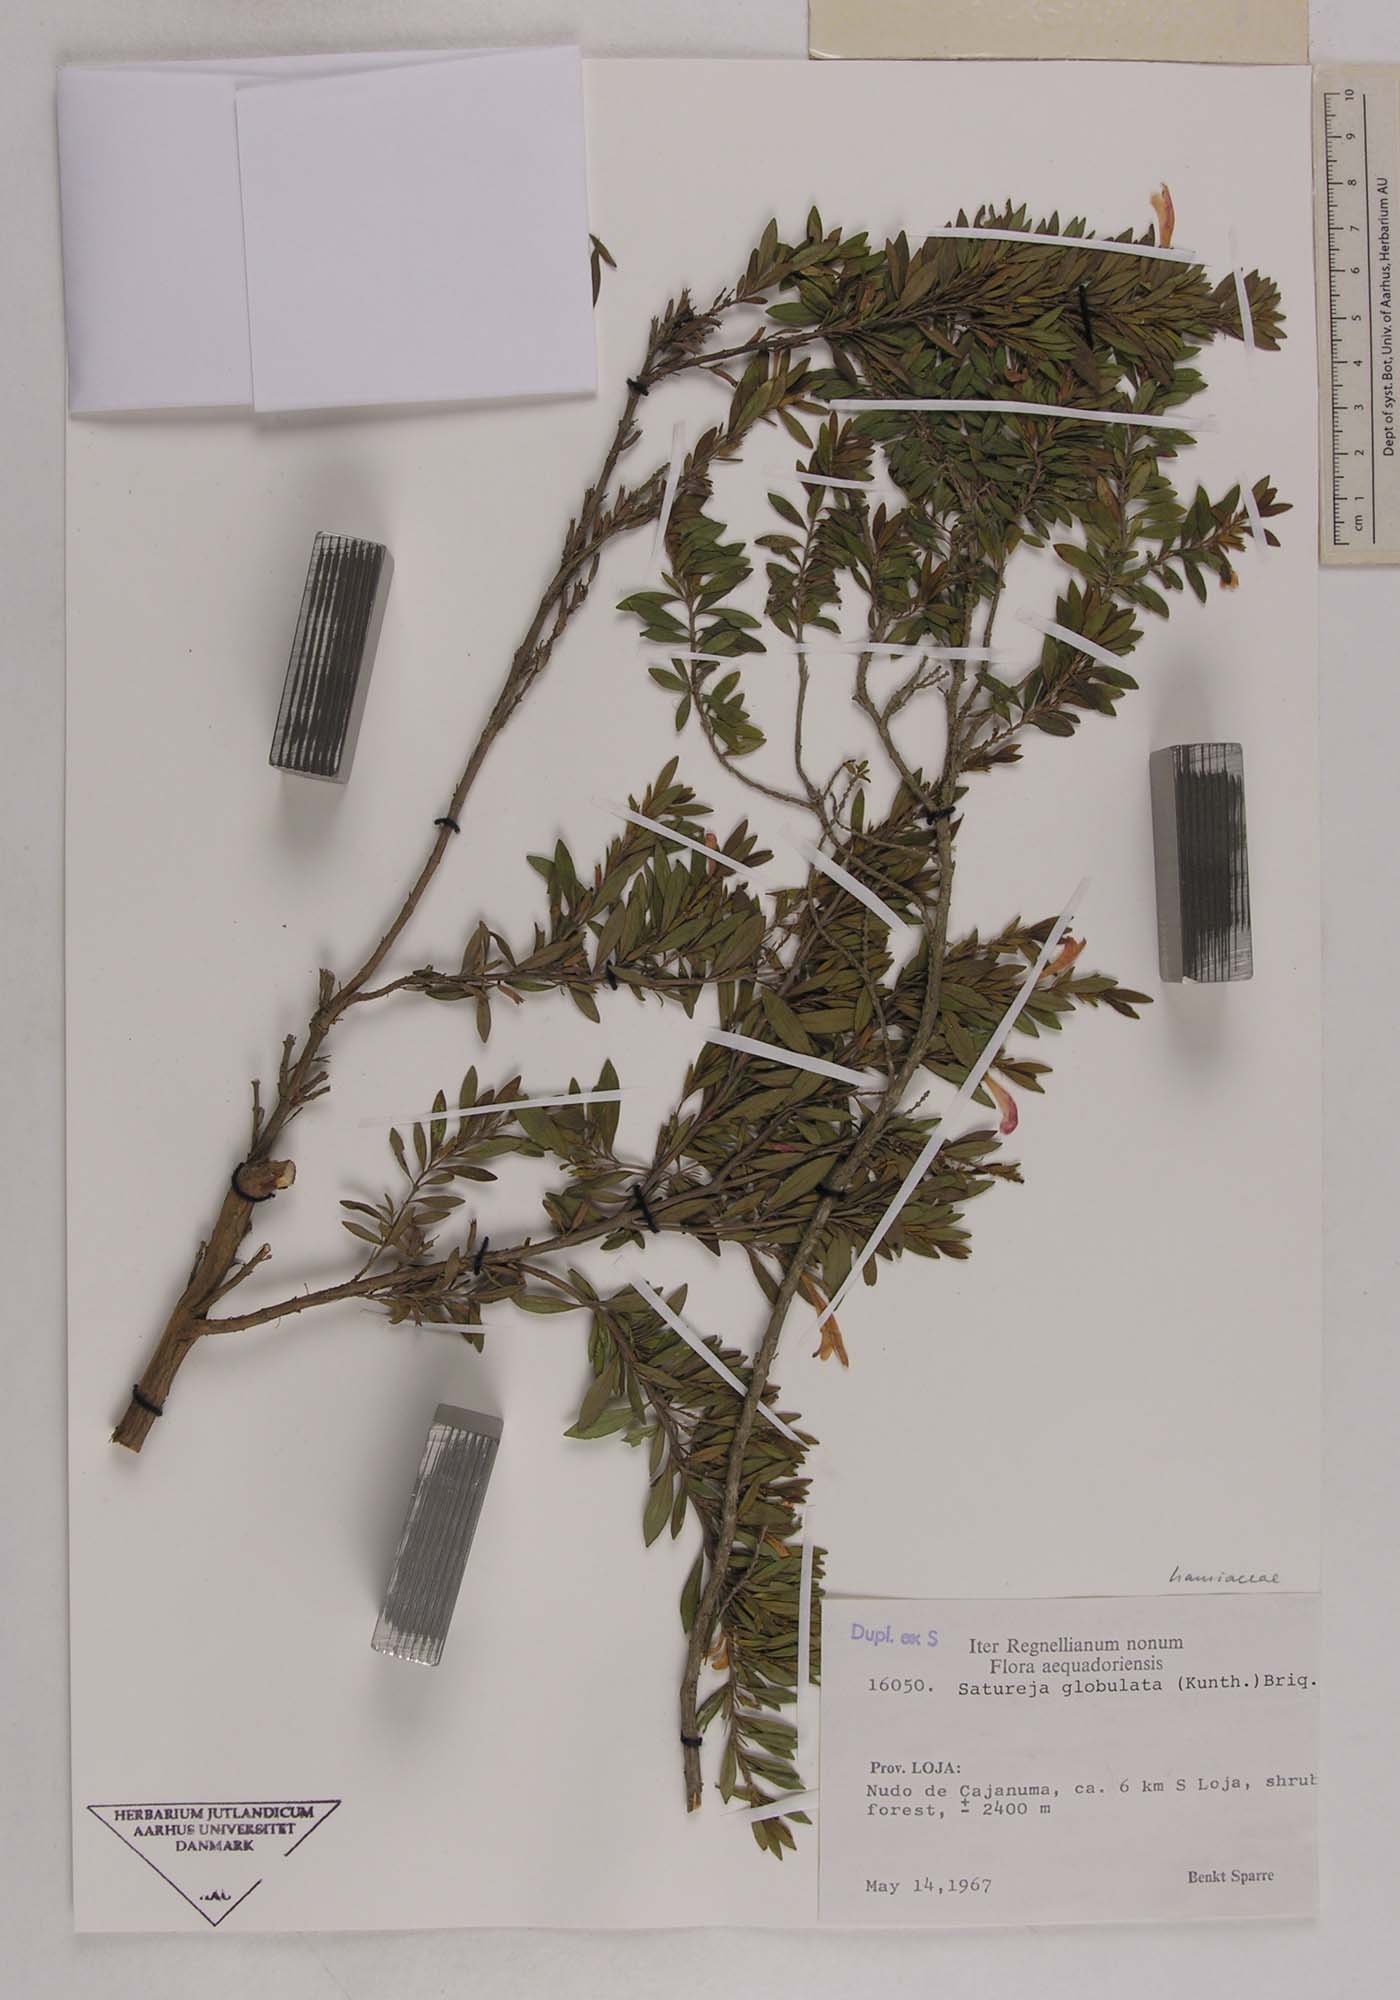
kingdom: Plantae
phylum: Tracheophyta
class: Magnoliopsida
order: Lamiales
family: Lamiaceae
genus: Satureja
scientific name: Satureja
